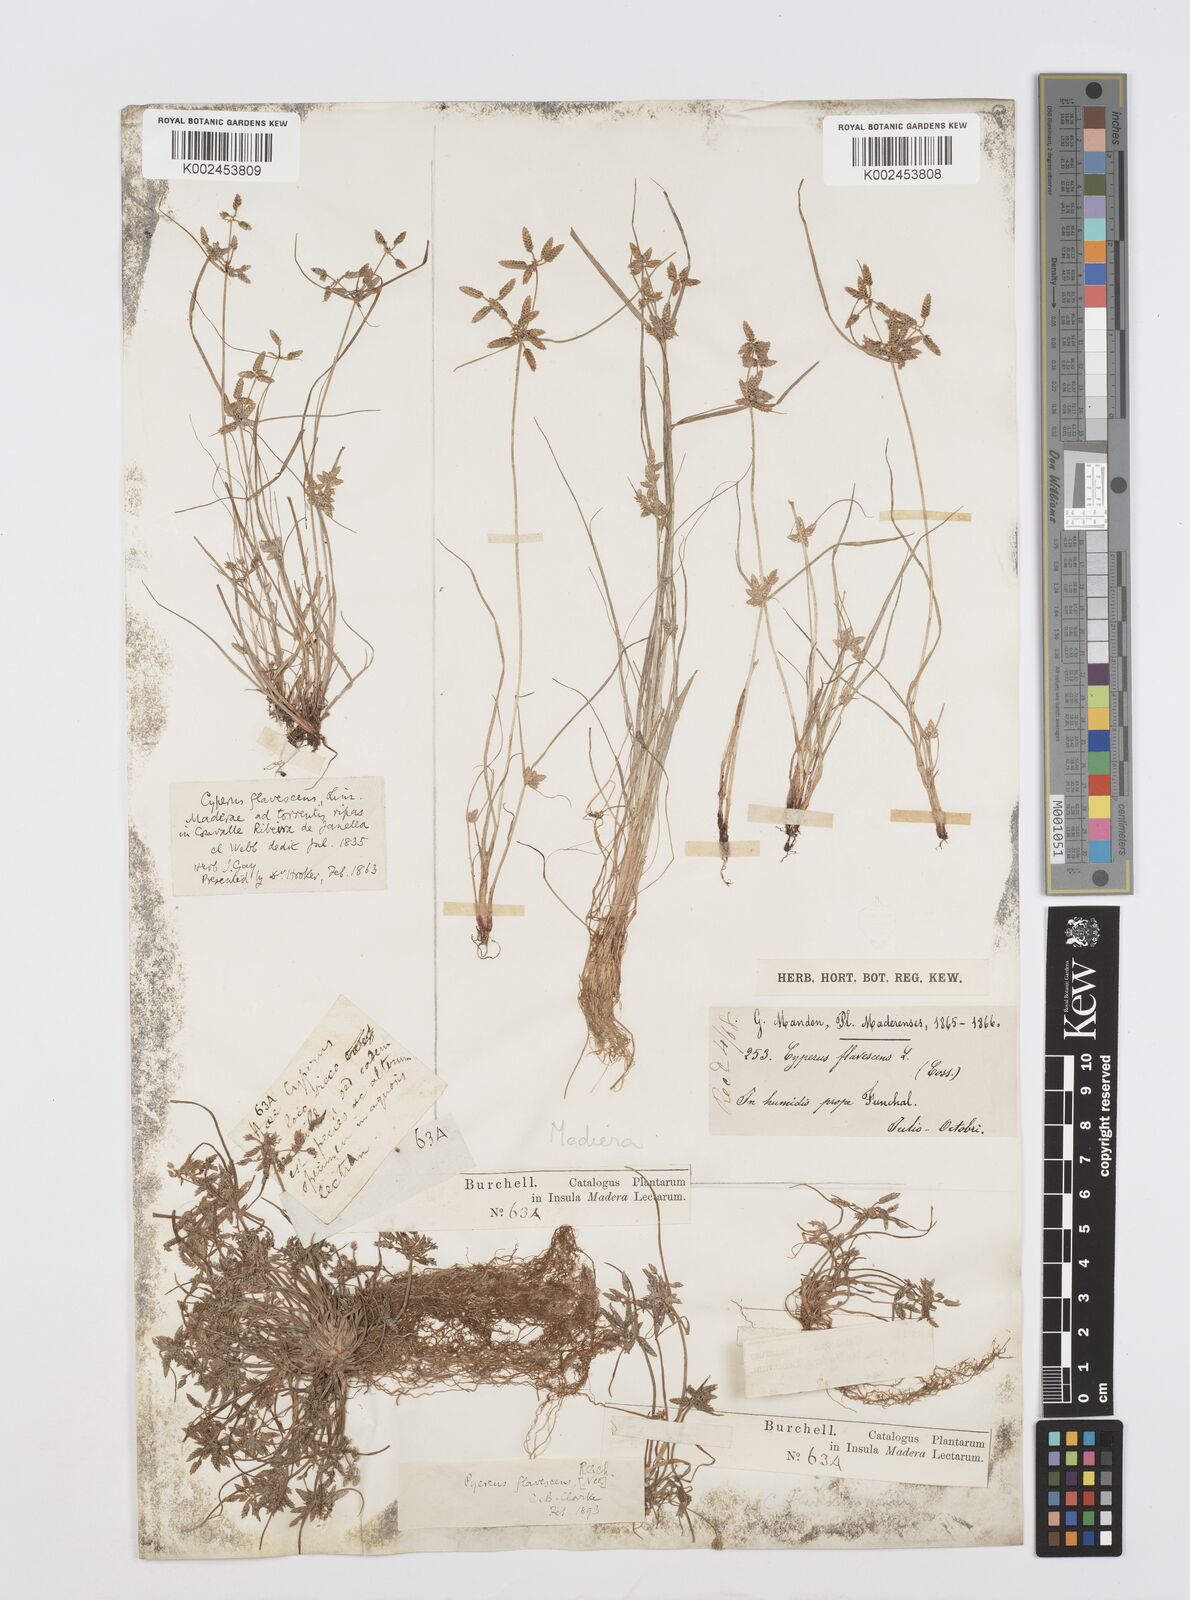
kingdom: Plantae
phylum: Tracheophyta
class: Liliopsida
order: Poales
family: Cyperaceae
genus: Cyperus
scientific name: Cyperus flavescens
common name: Yellow galingale
